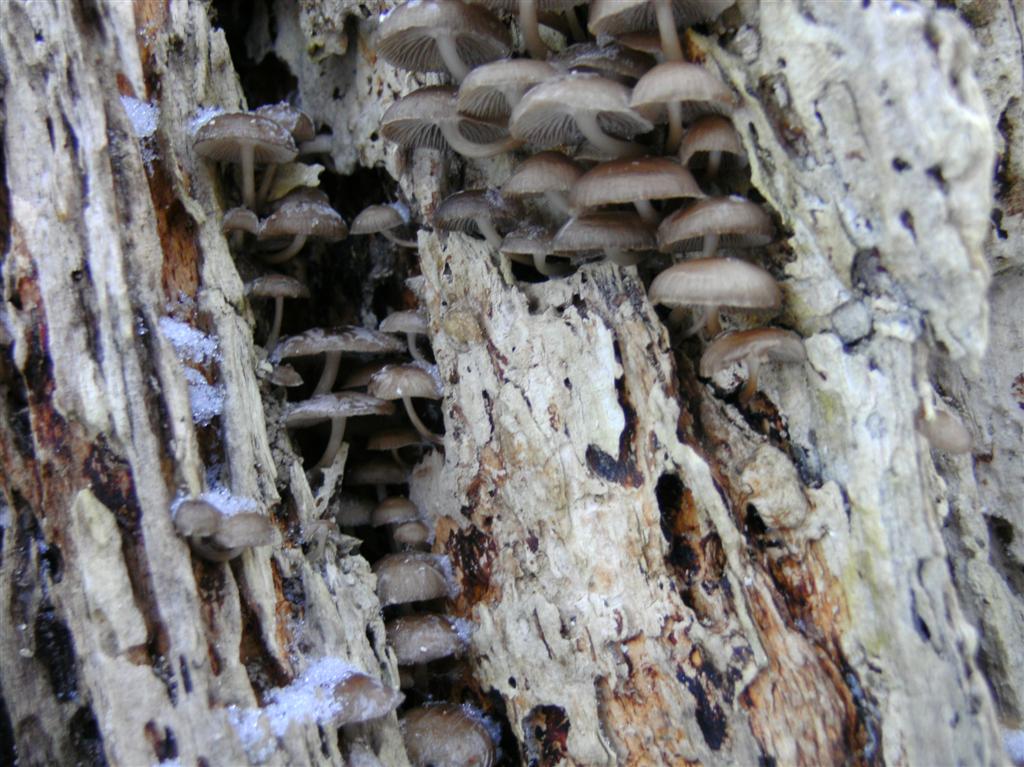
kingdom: Fungi
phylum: Basidiomycota
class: Agaricomycetes
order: Agaricales
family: Mycenaceae
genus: Mycena
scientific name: Mycena tintinnabulum
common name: vinter-huesvamp
